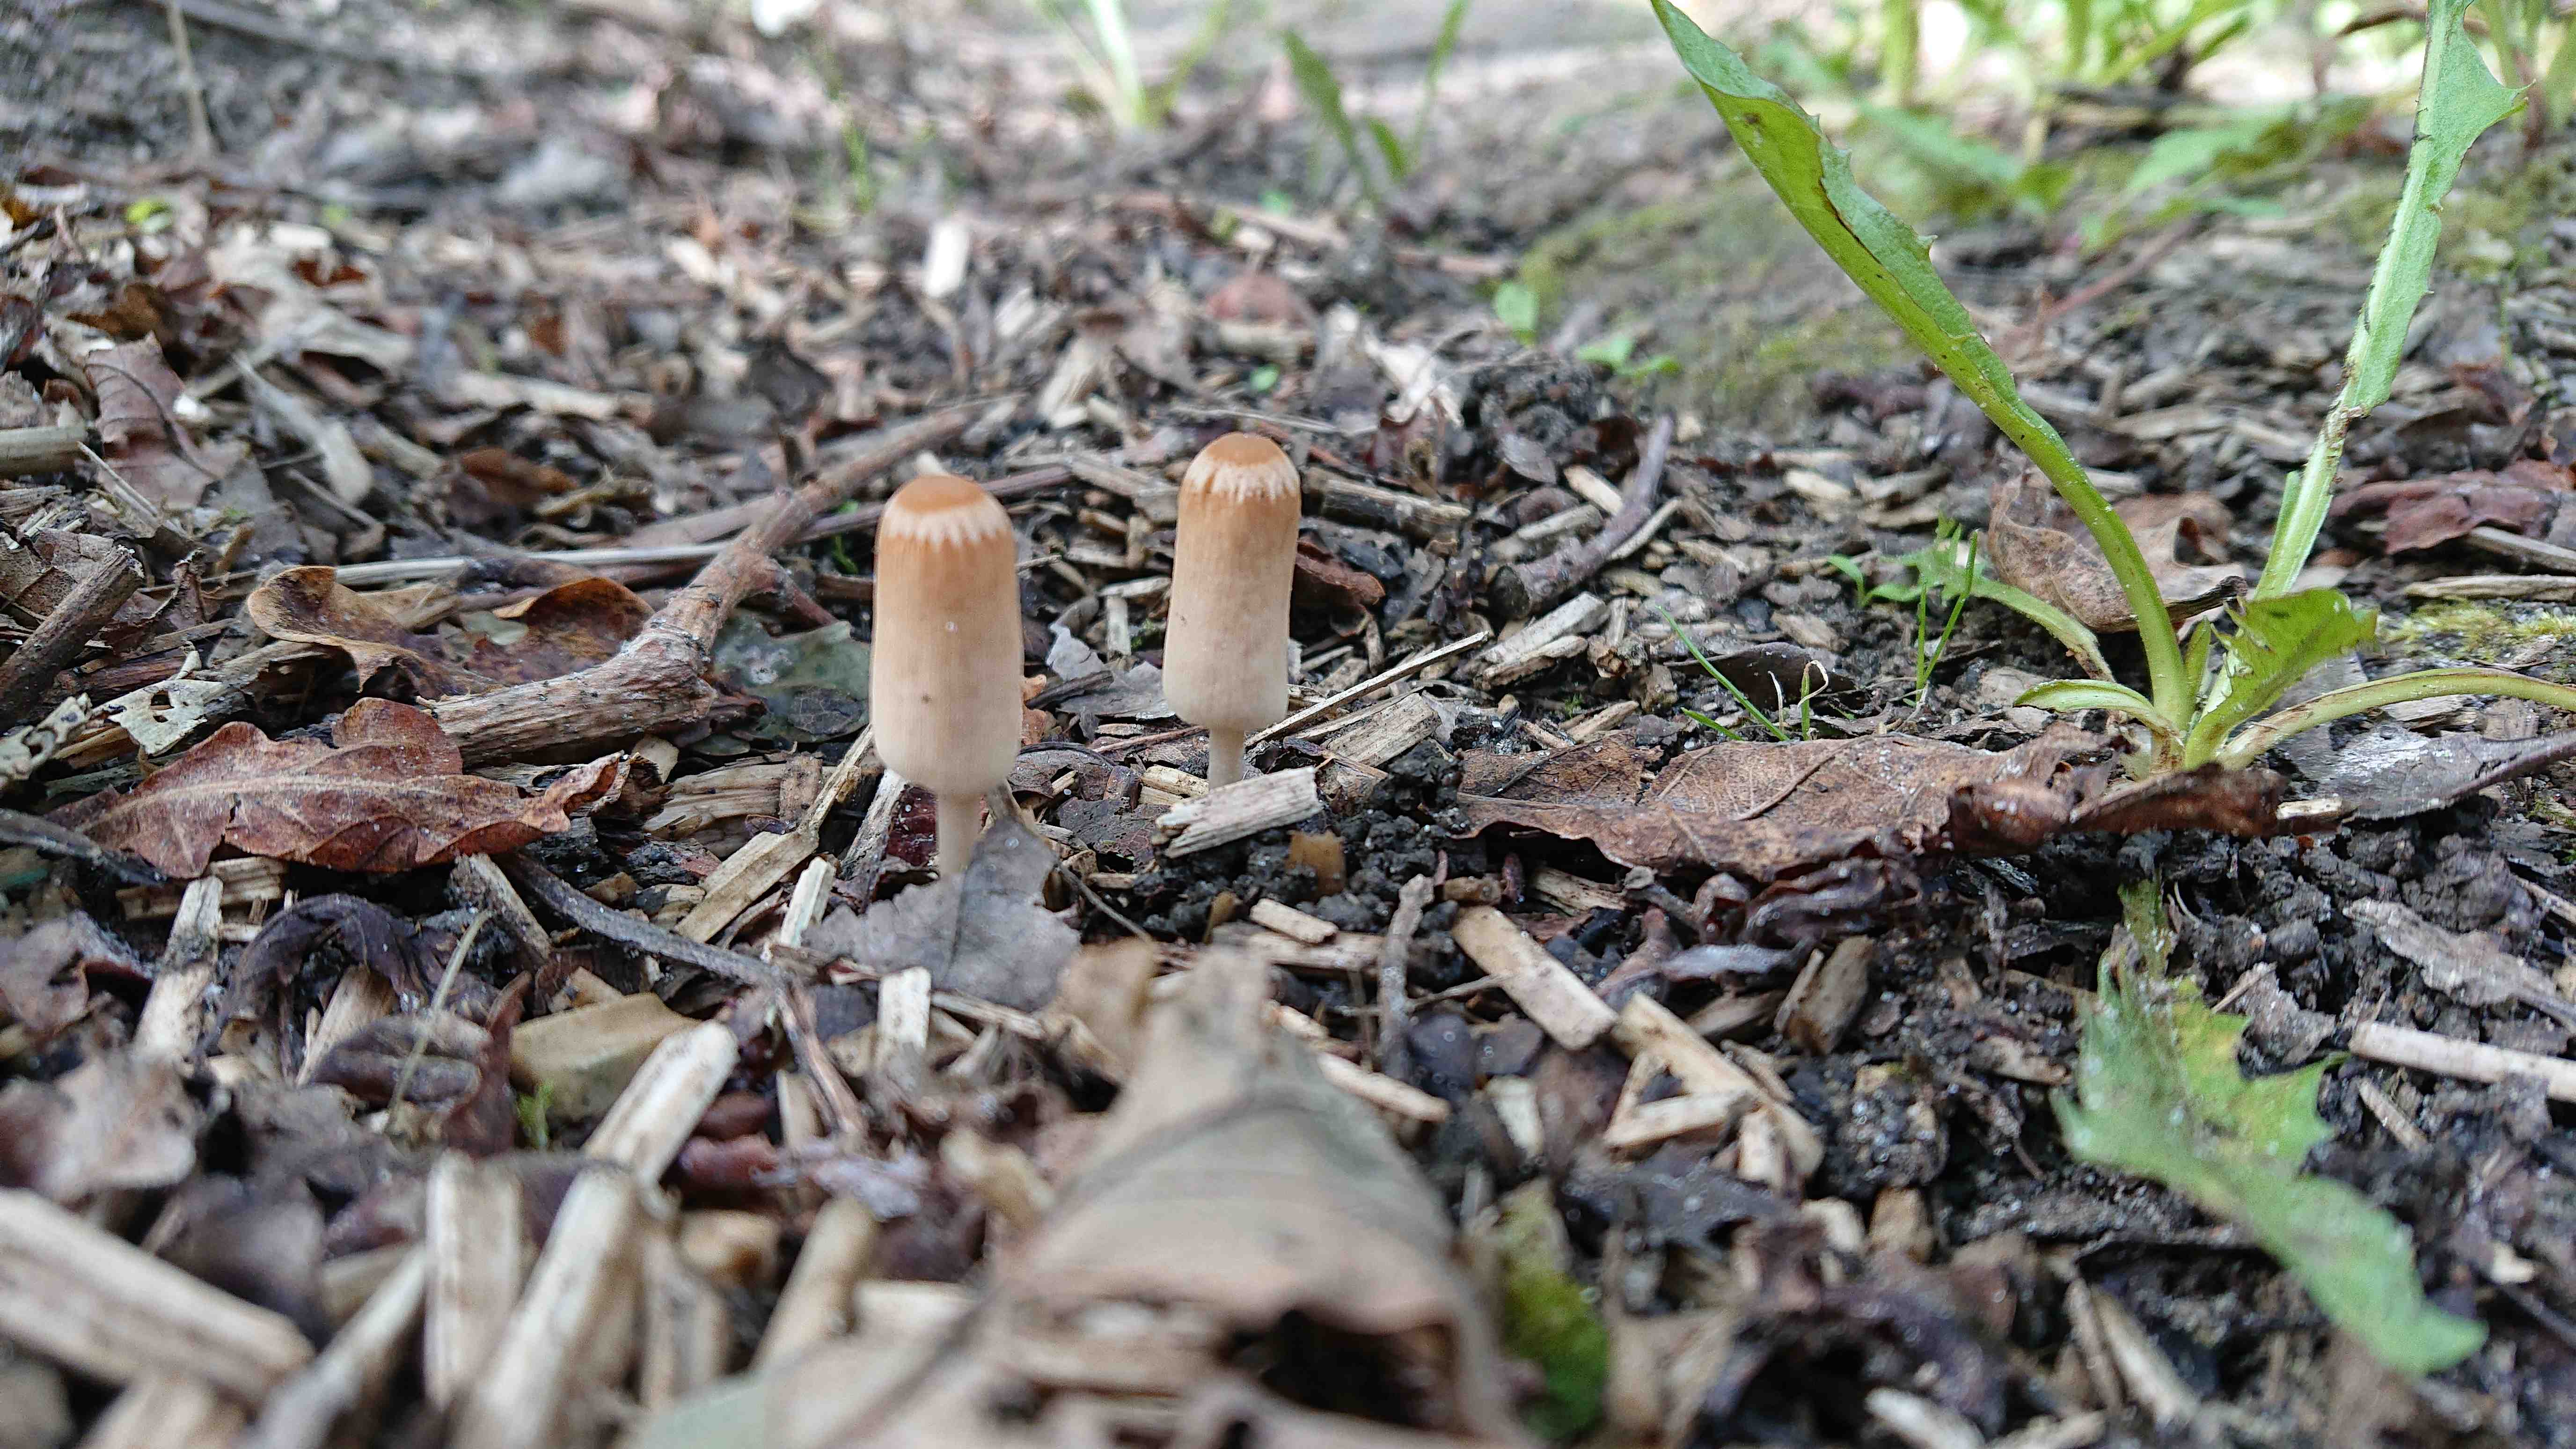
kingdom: Fungi
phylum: Basidiomycota
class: Agaricomycetes
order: Agaricales
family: Psathyrellaceae
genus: Parasola
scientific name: Parasola
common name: hjulhat
